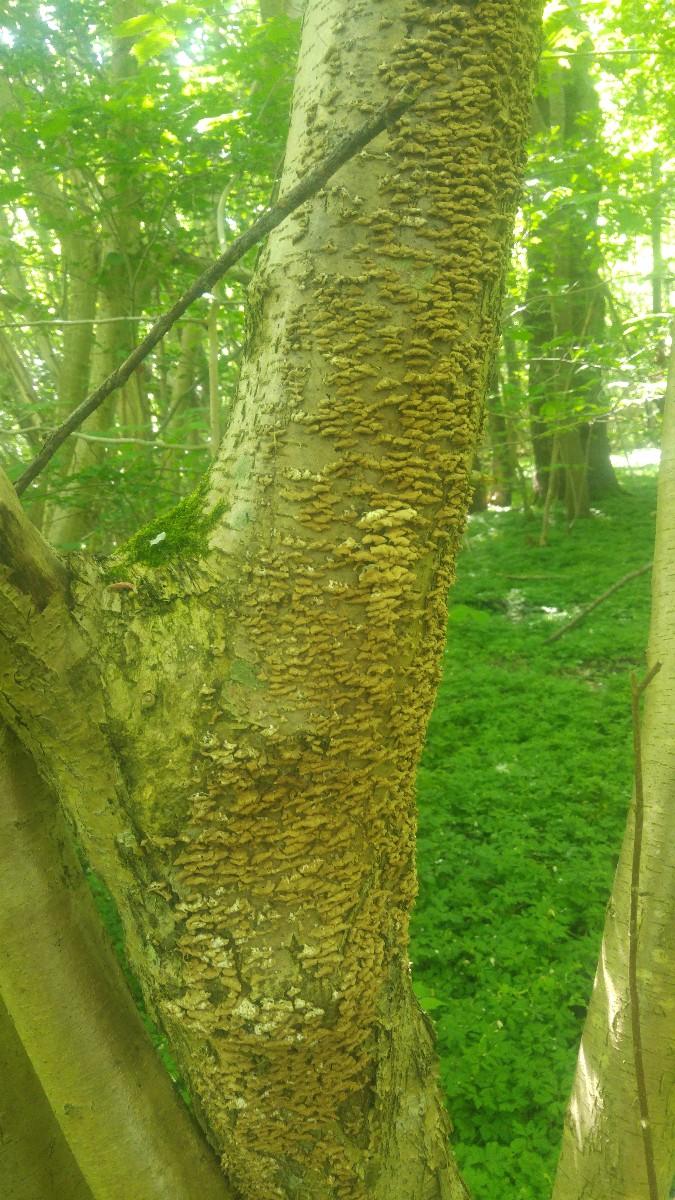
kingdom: Fungi
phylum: Basidiomycota
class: Agaricomycetes
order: Amylocorticiales
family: Amylocorticiaceae
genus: Plicaturopsis
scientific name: Plicaturopsis crispa
